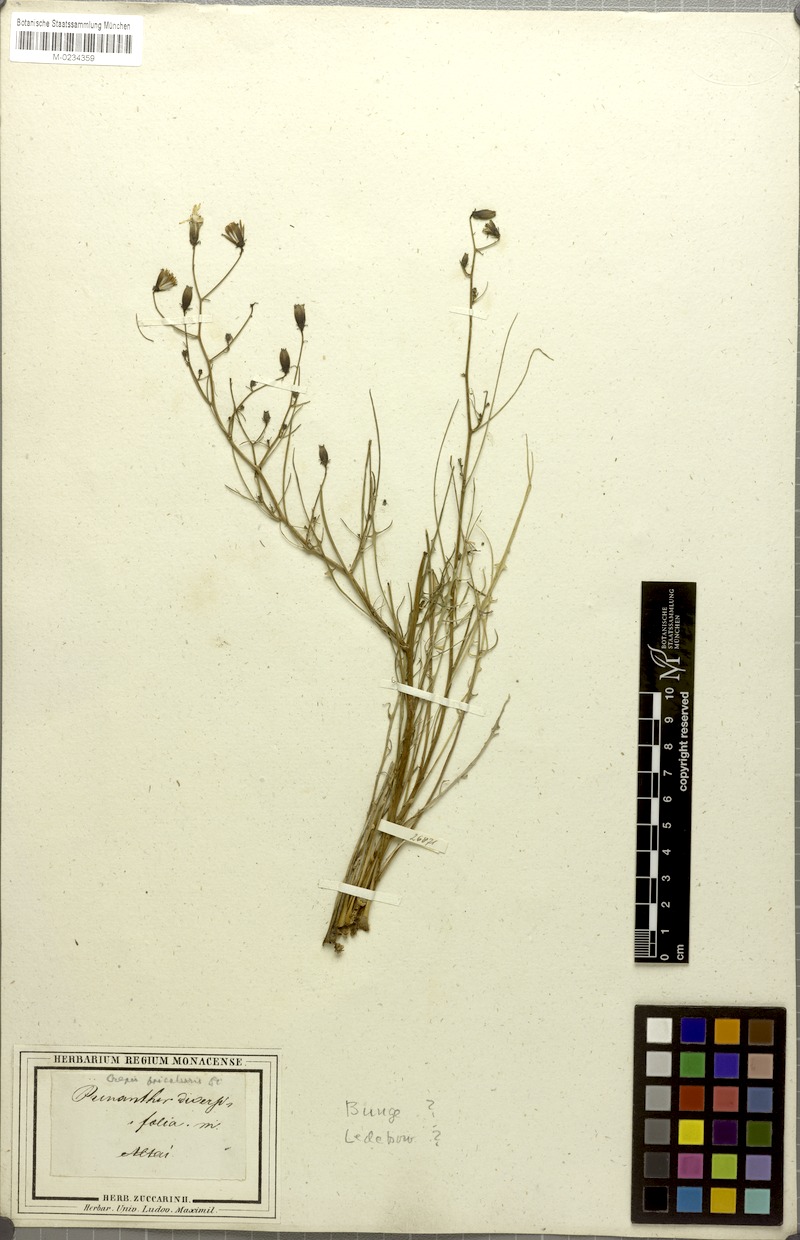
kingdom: Plantae
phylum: Tracheophyta
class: Magnoliopsida
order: Asterales
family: Asteraceae
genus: Crepidiastrum
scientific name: Crepidiastrum diversifolium
